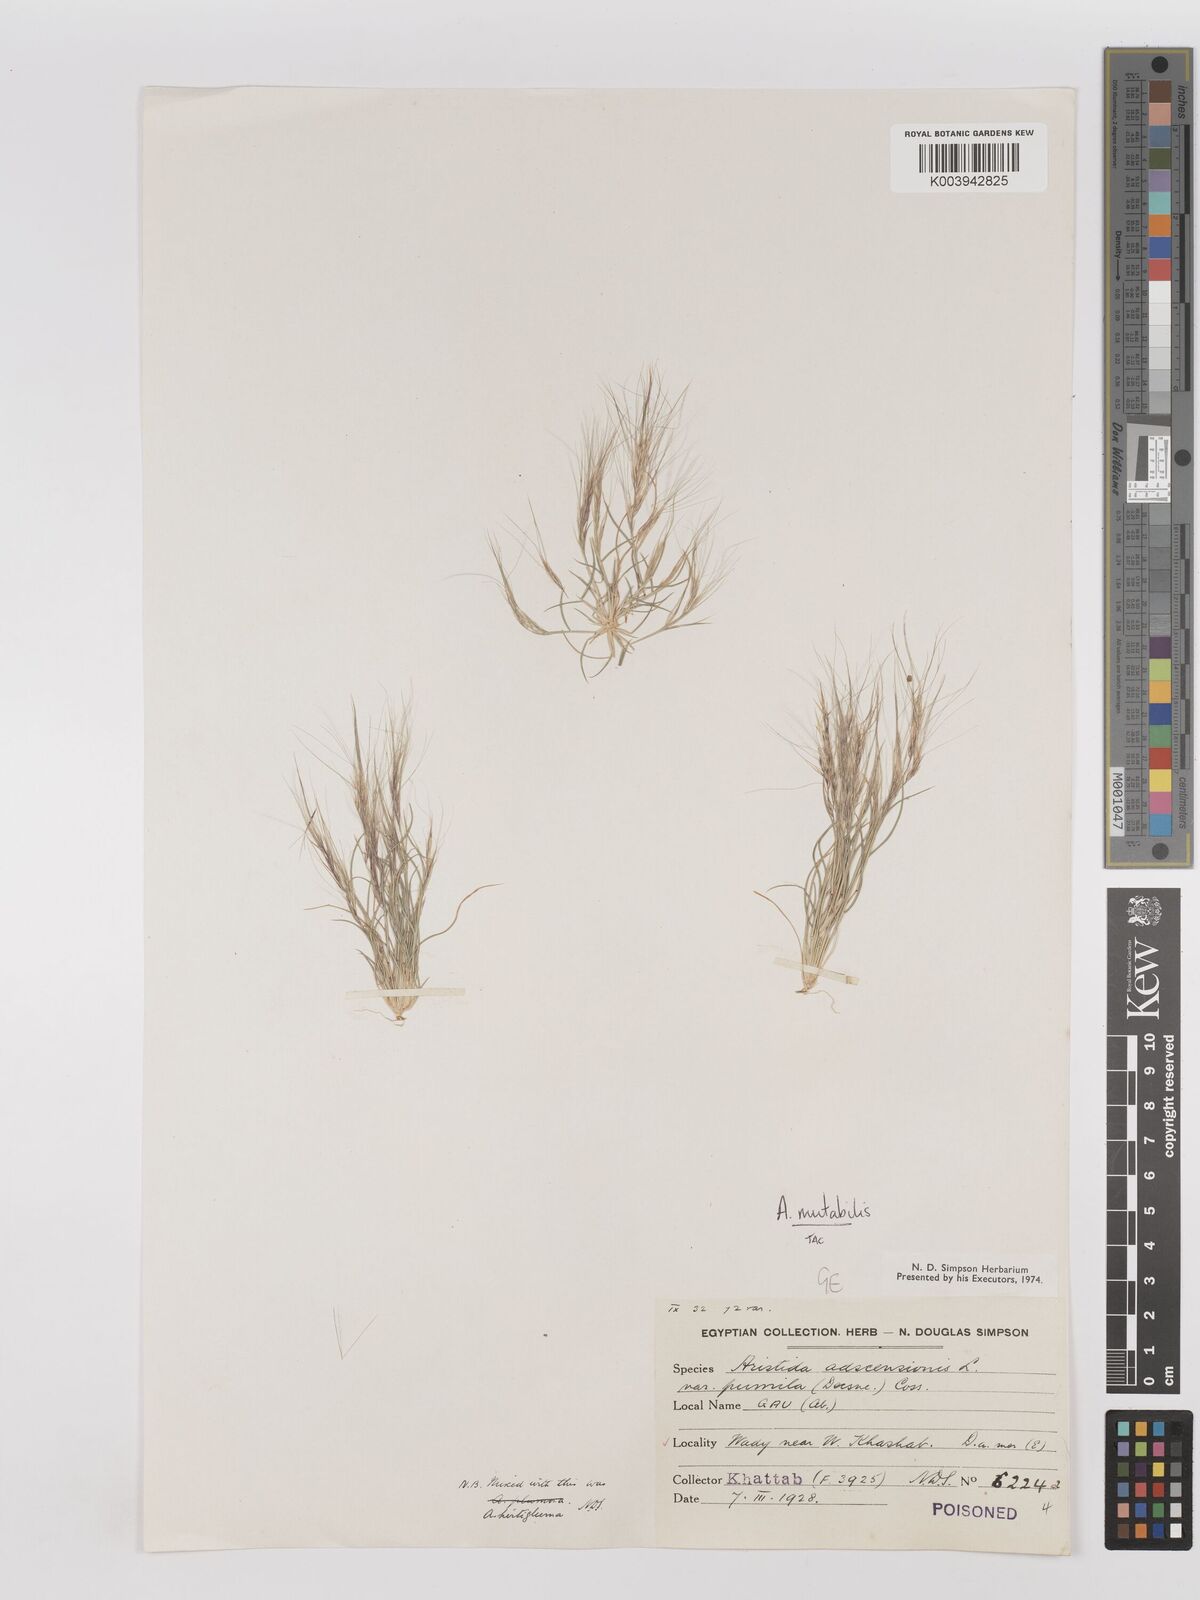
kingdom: Plantae
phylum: Tracheophyta
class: Liliopsida
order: Poales
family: Poaceae
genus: Aristida
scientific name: Aristida mutabilis
